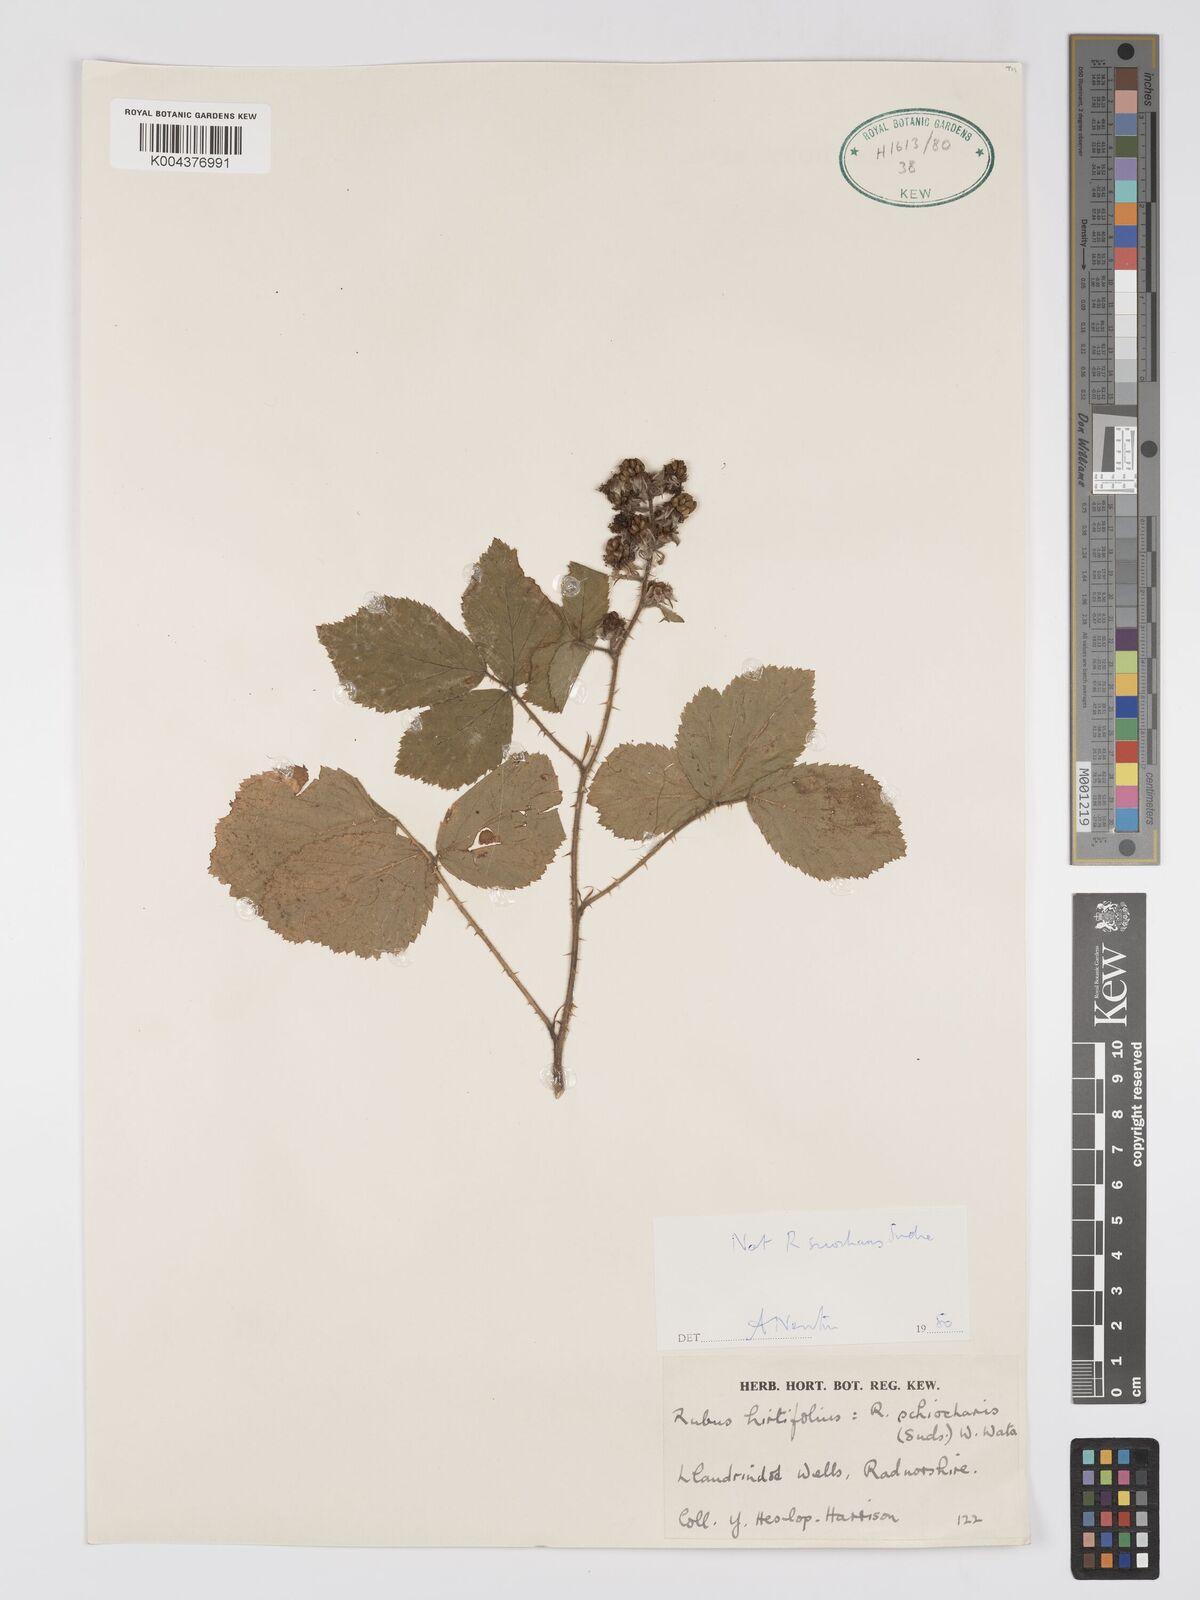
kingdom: Plantae
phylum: Tracheophyta
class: Magnoliopsida
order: Rosales
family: Rosaceae
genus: Rubus
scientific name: Rubus sciocharis
